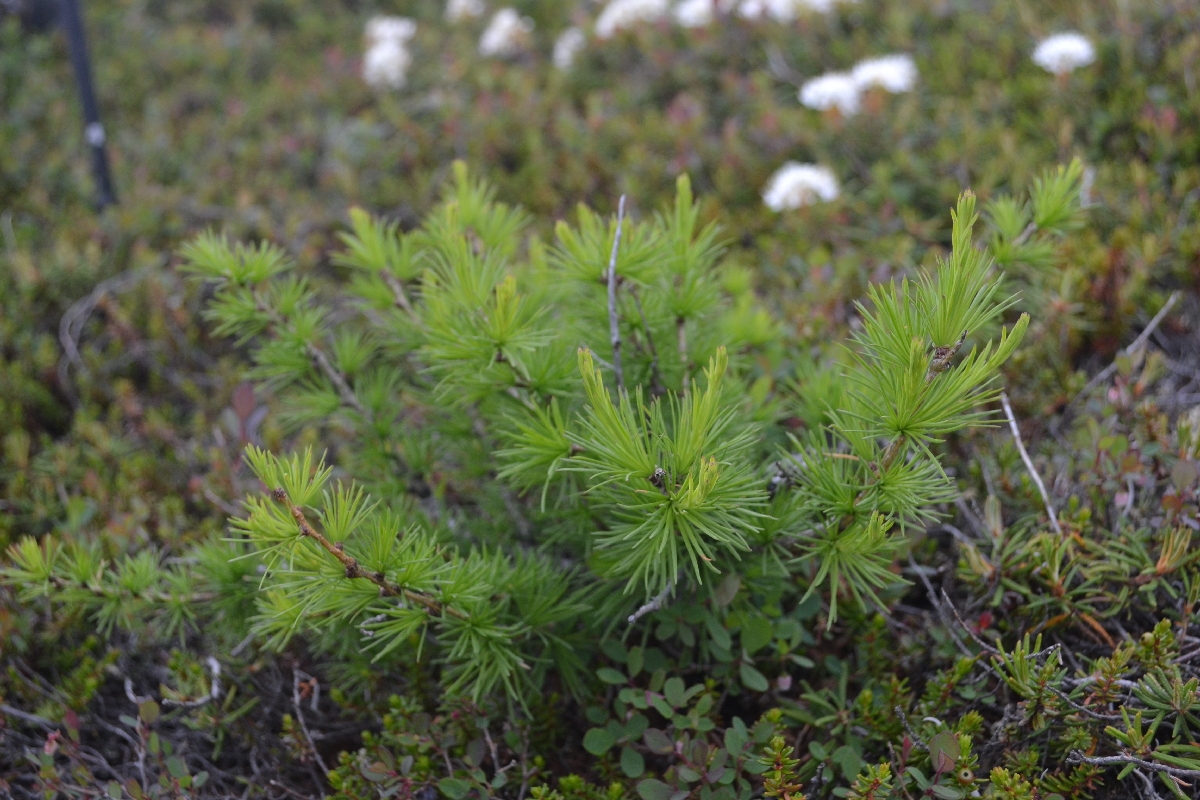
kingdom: Plantae
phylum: Tracheophyta
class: Pinopsida
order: Pinales
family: Pinaceae
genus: Larix
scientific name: Larix sibirica
